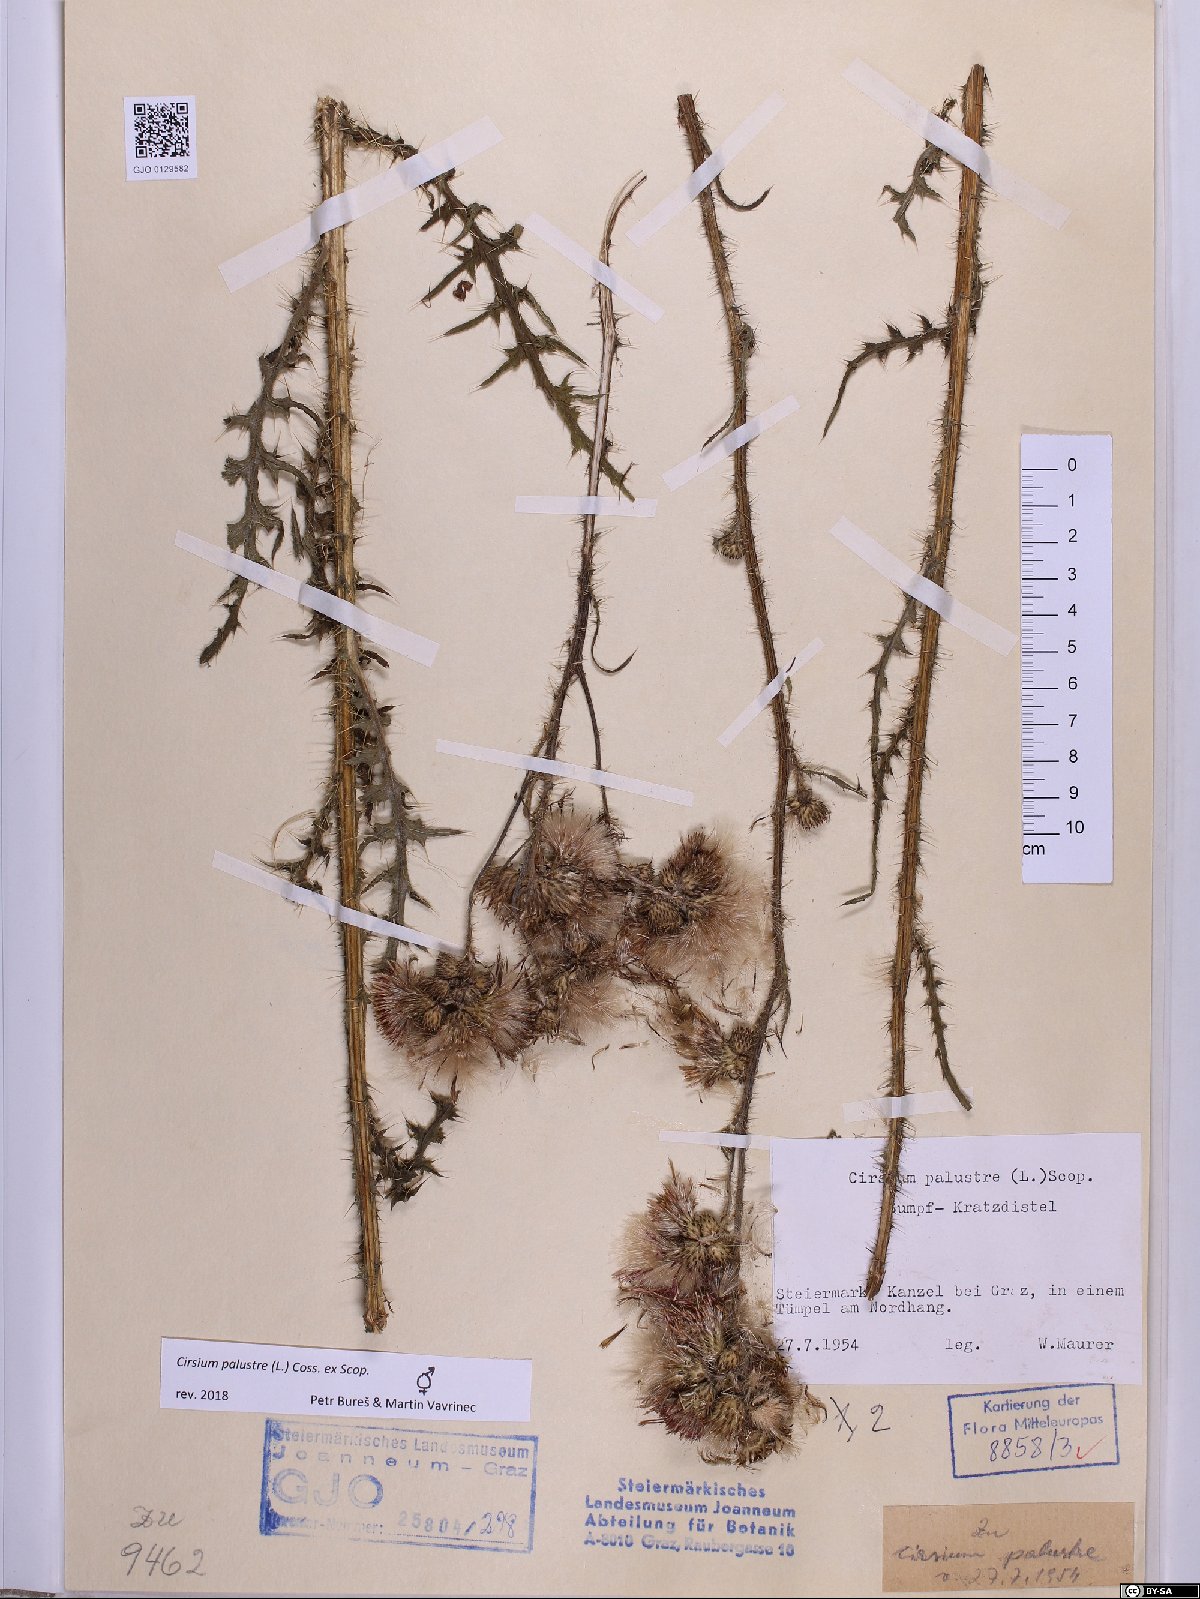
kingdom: Plantae
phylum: Tracheophyta
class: Magnoliopsida
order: Asterales
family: Asteraceae
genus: Cirsium
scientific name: Cirsium palustre
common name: Marsh thistle
